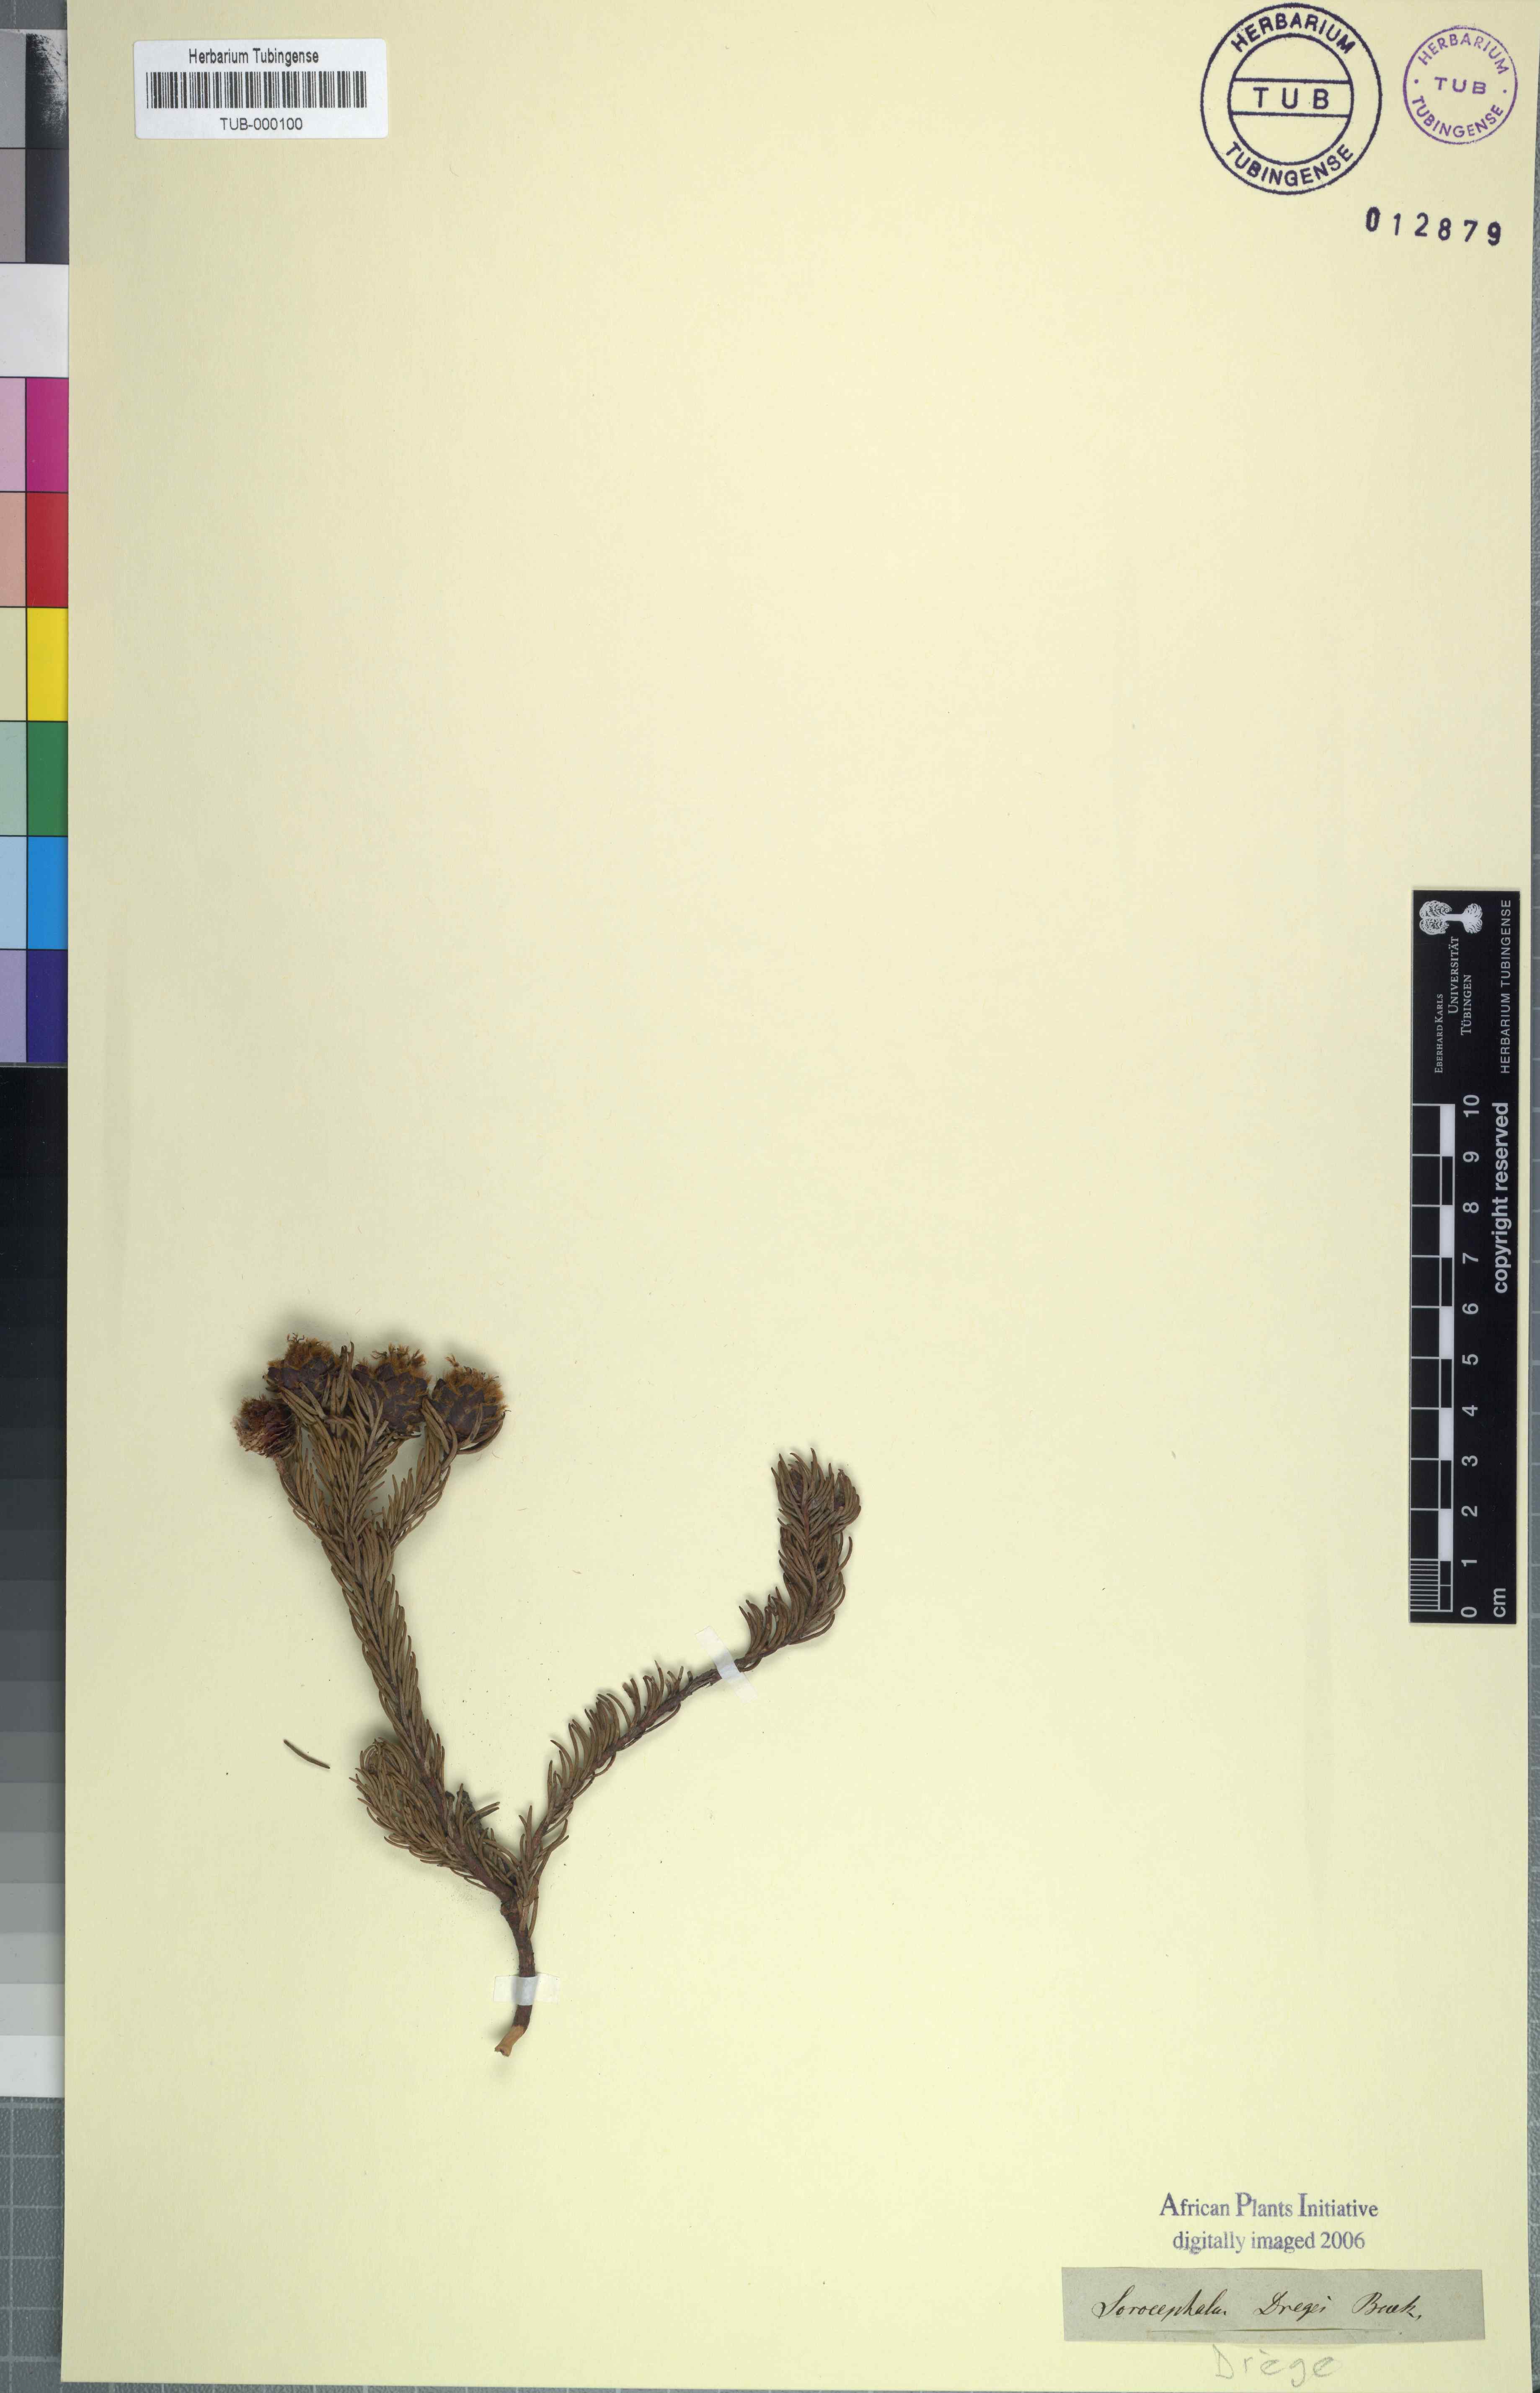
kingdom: Plantae
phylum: Tracheophyta
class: Magnoliopsida
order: Proteales
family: Proteaceae
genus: Leucadendron
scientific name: Leucadendron sorocephalodes
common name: Woolly conebush
